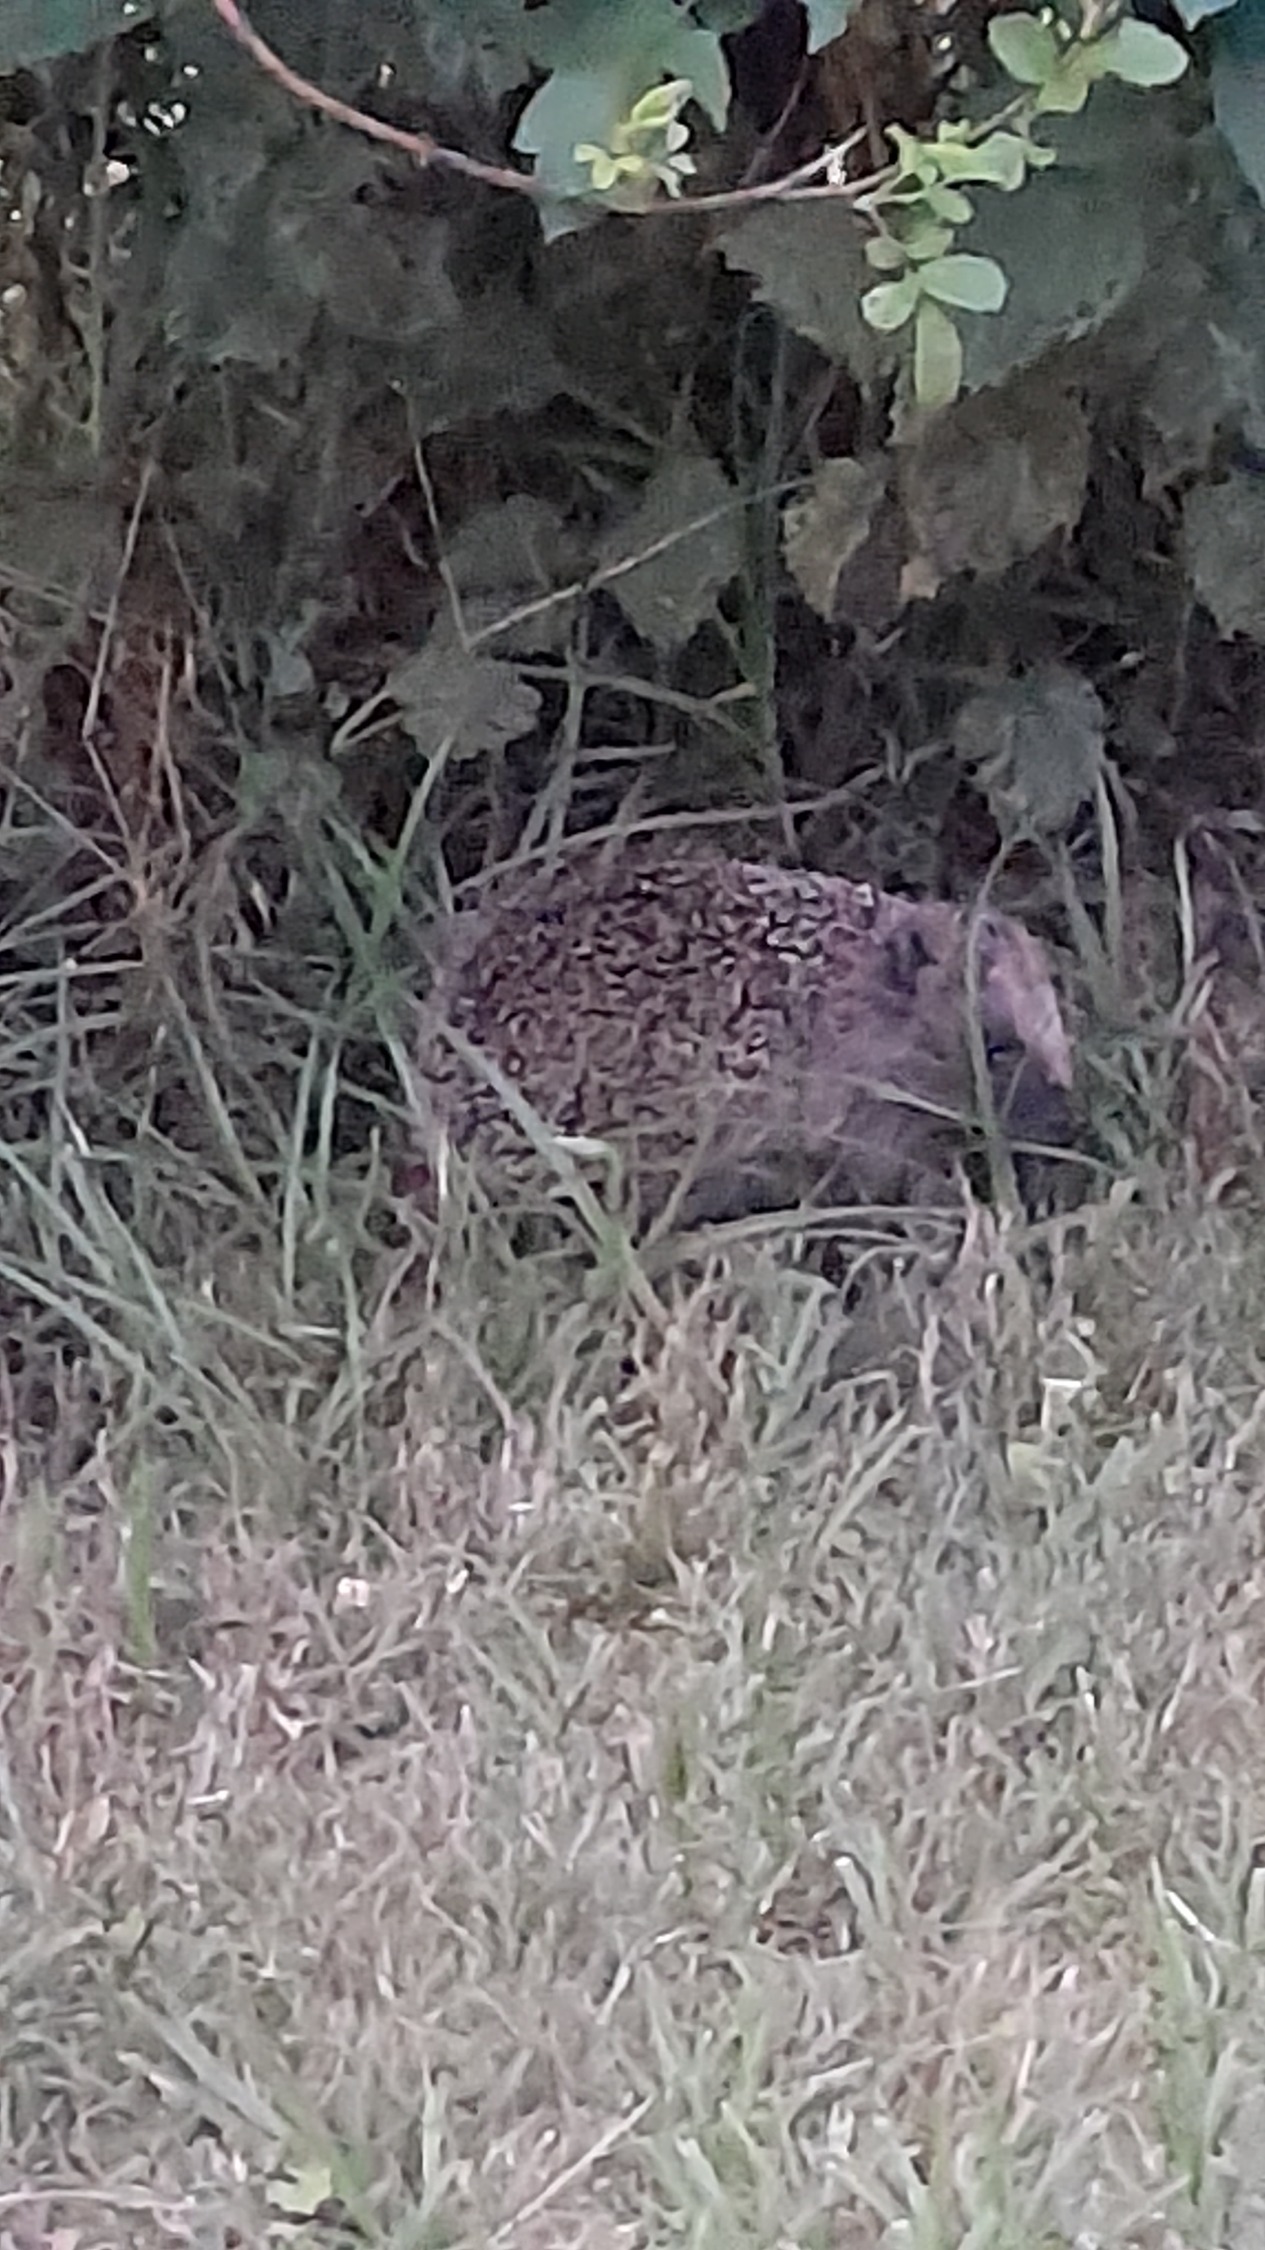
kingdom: Animalia
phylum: Chordata
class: Mammalia
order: Erinaceomorpha
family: Erinaceidae
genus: Erinaceus
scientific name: Erinaceus europaeus
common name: Pindsvin
